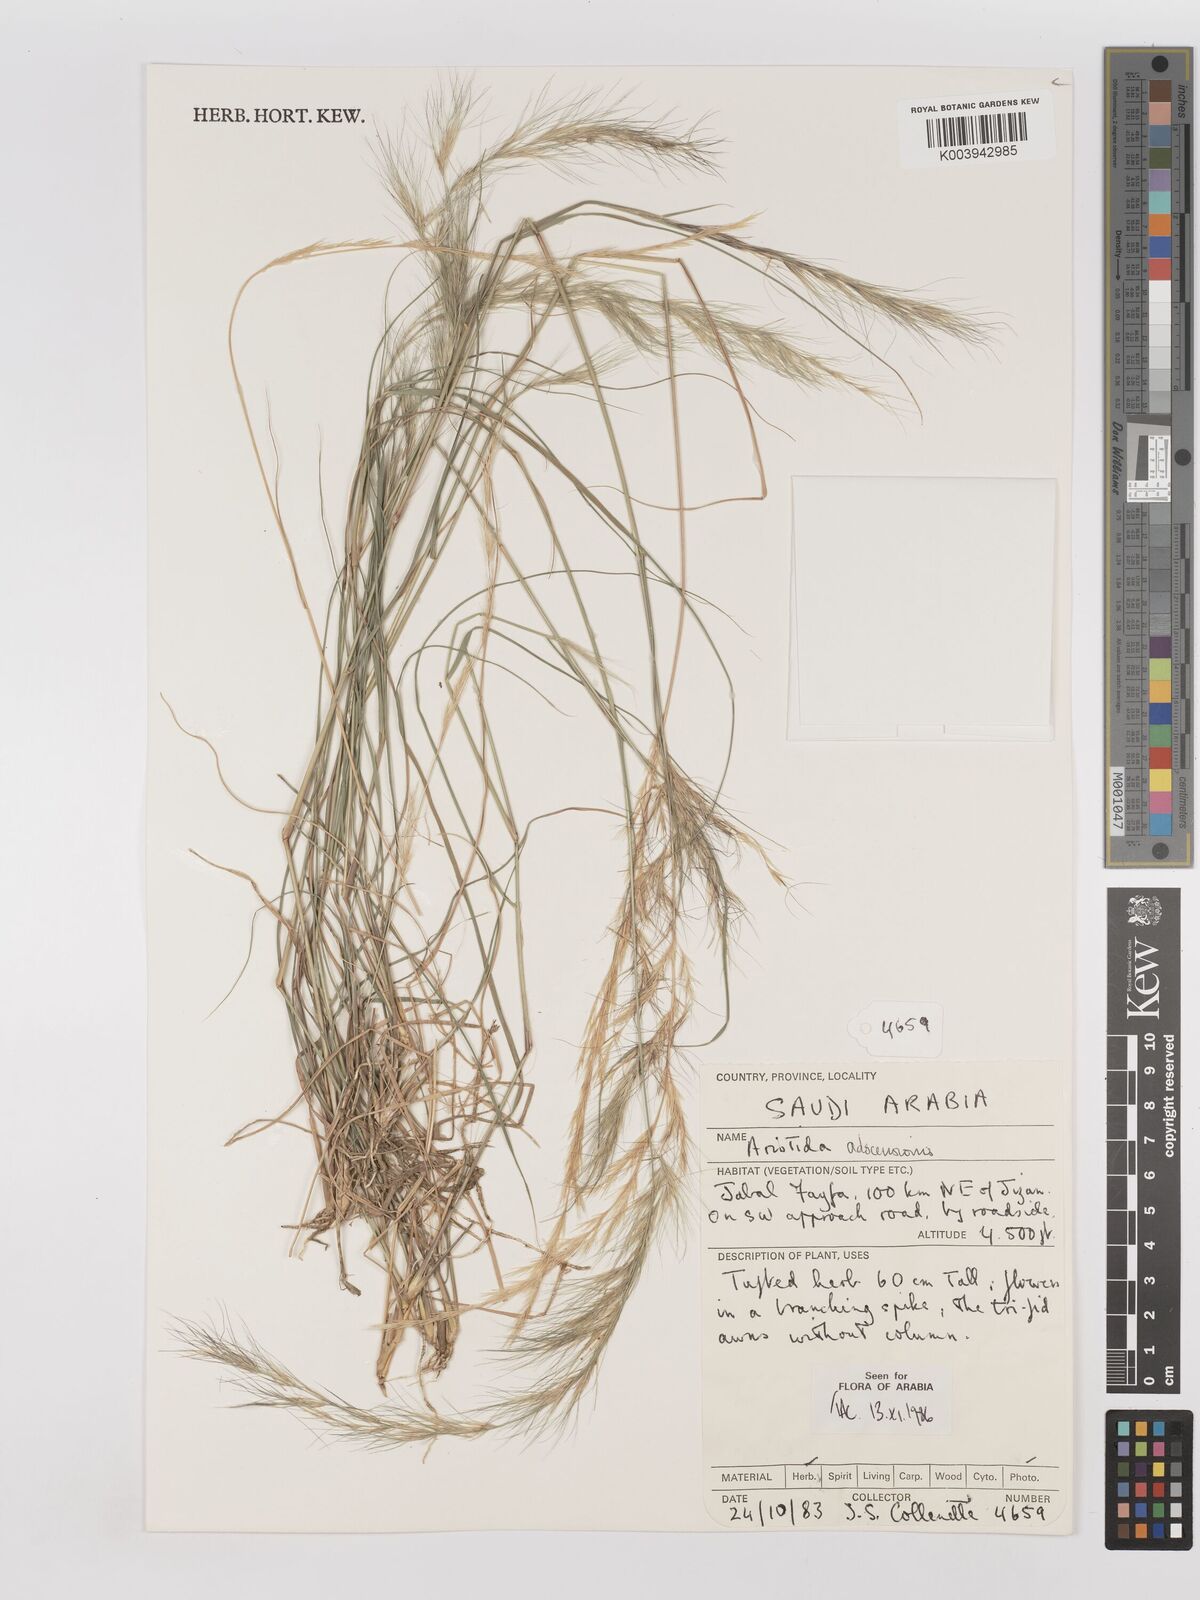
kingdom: Plantae
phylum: Tracheophyta
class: Liliopsida
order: Poales
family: Poaceae
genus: Aristida
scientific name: Aristida adscensionis
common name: Sixweeks threeawn
